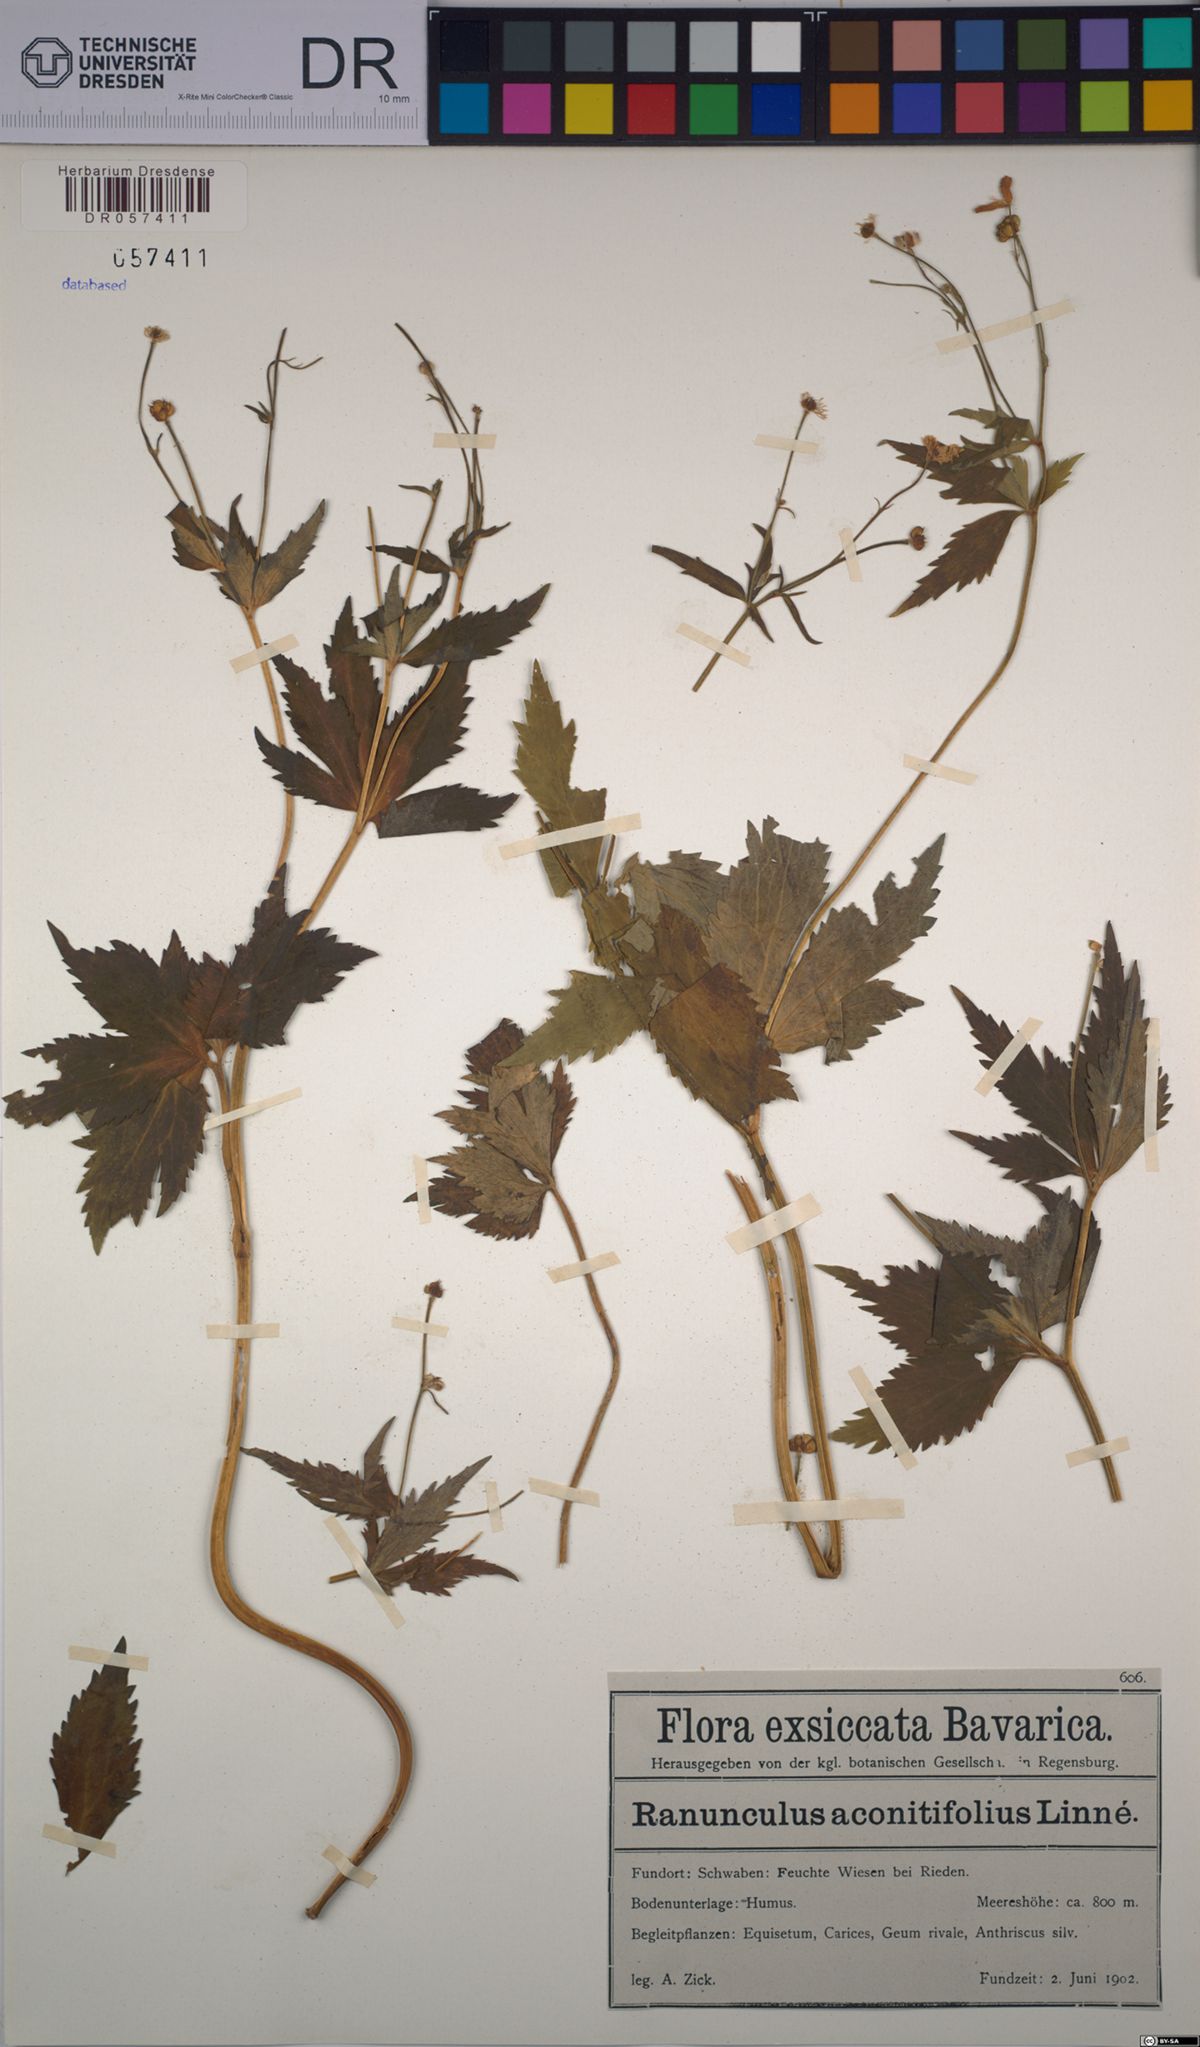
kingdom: Plantae
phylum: Tracheophyta
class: Magnoliopsida
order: Ranunculales
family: Ranunculaceae
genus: Ranunculus
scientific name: Ranunculus aconitifolius
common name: Aconite-leaved buttercup
